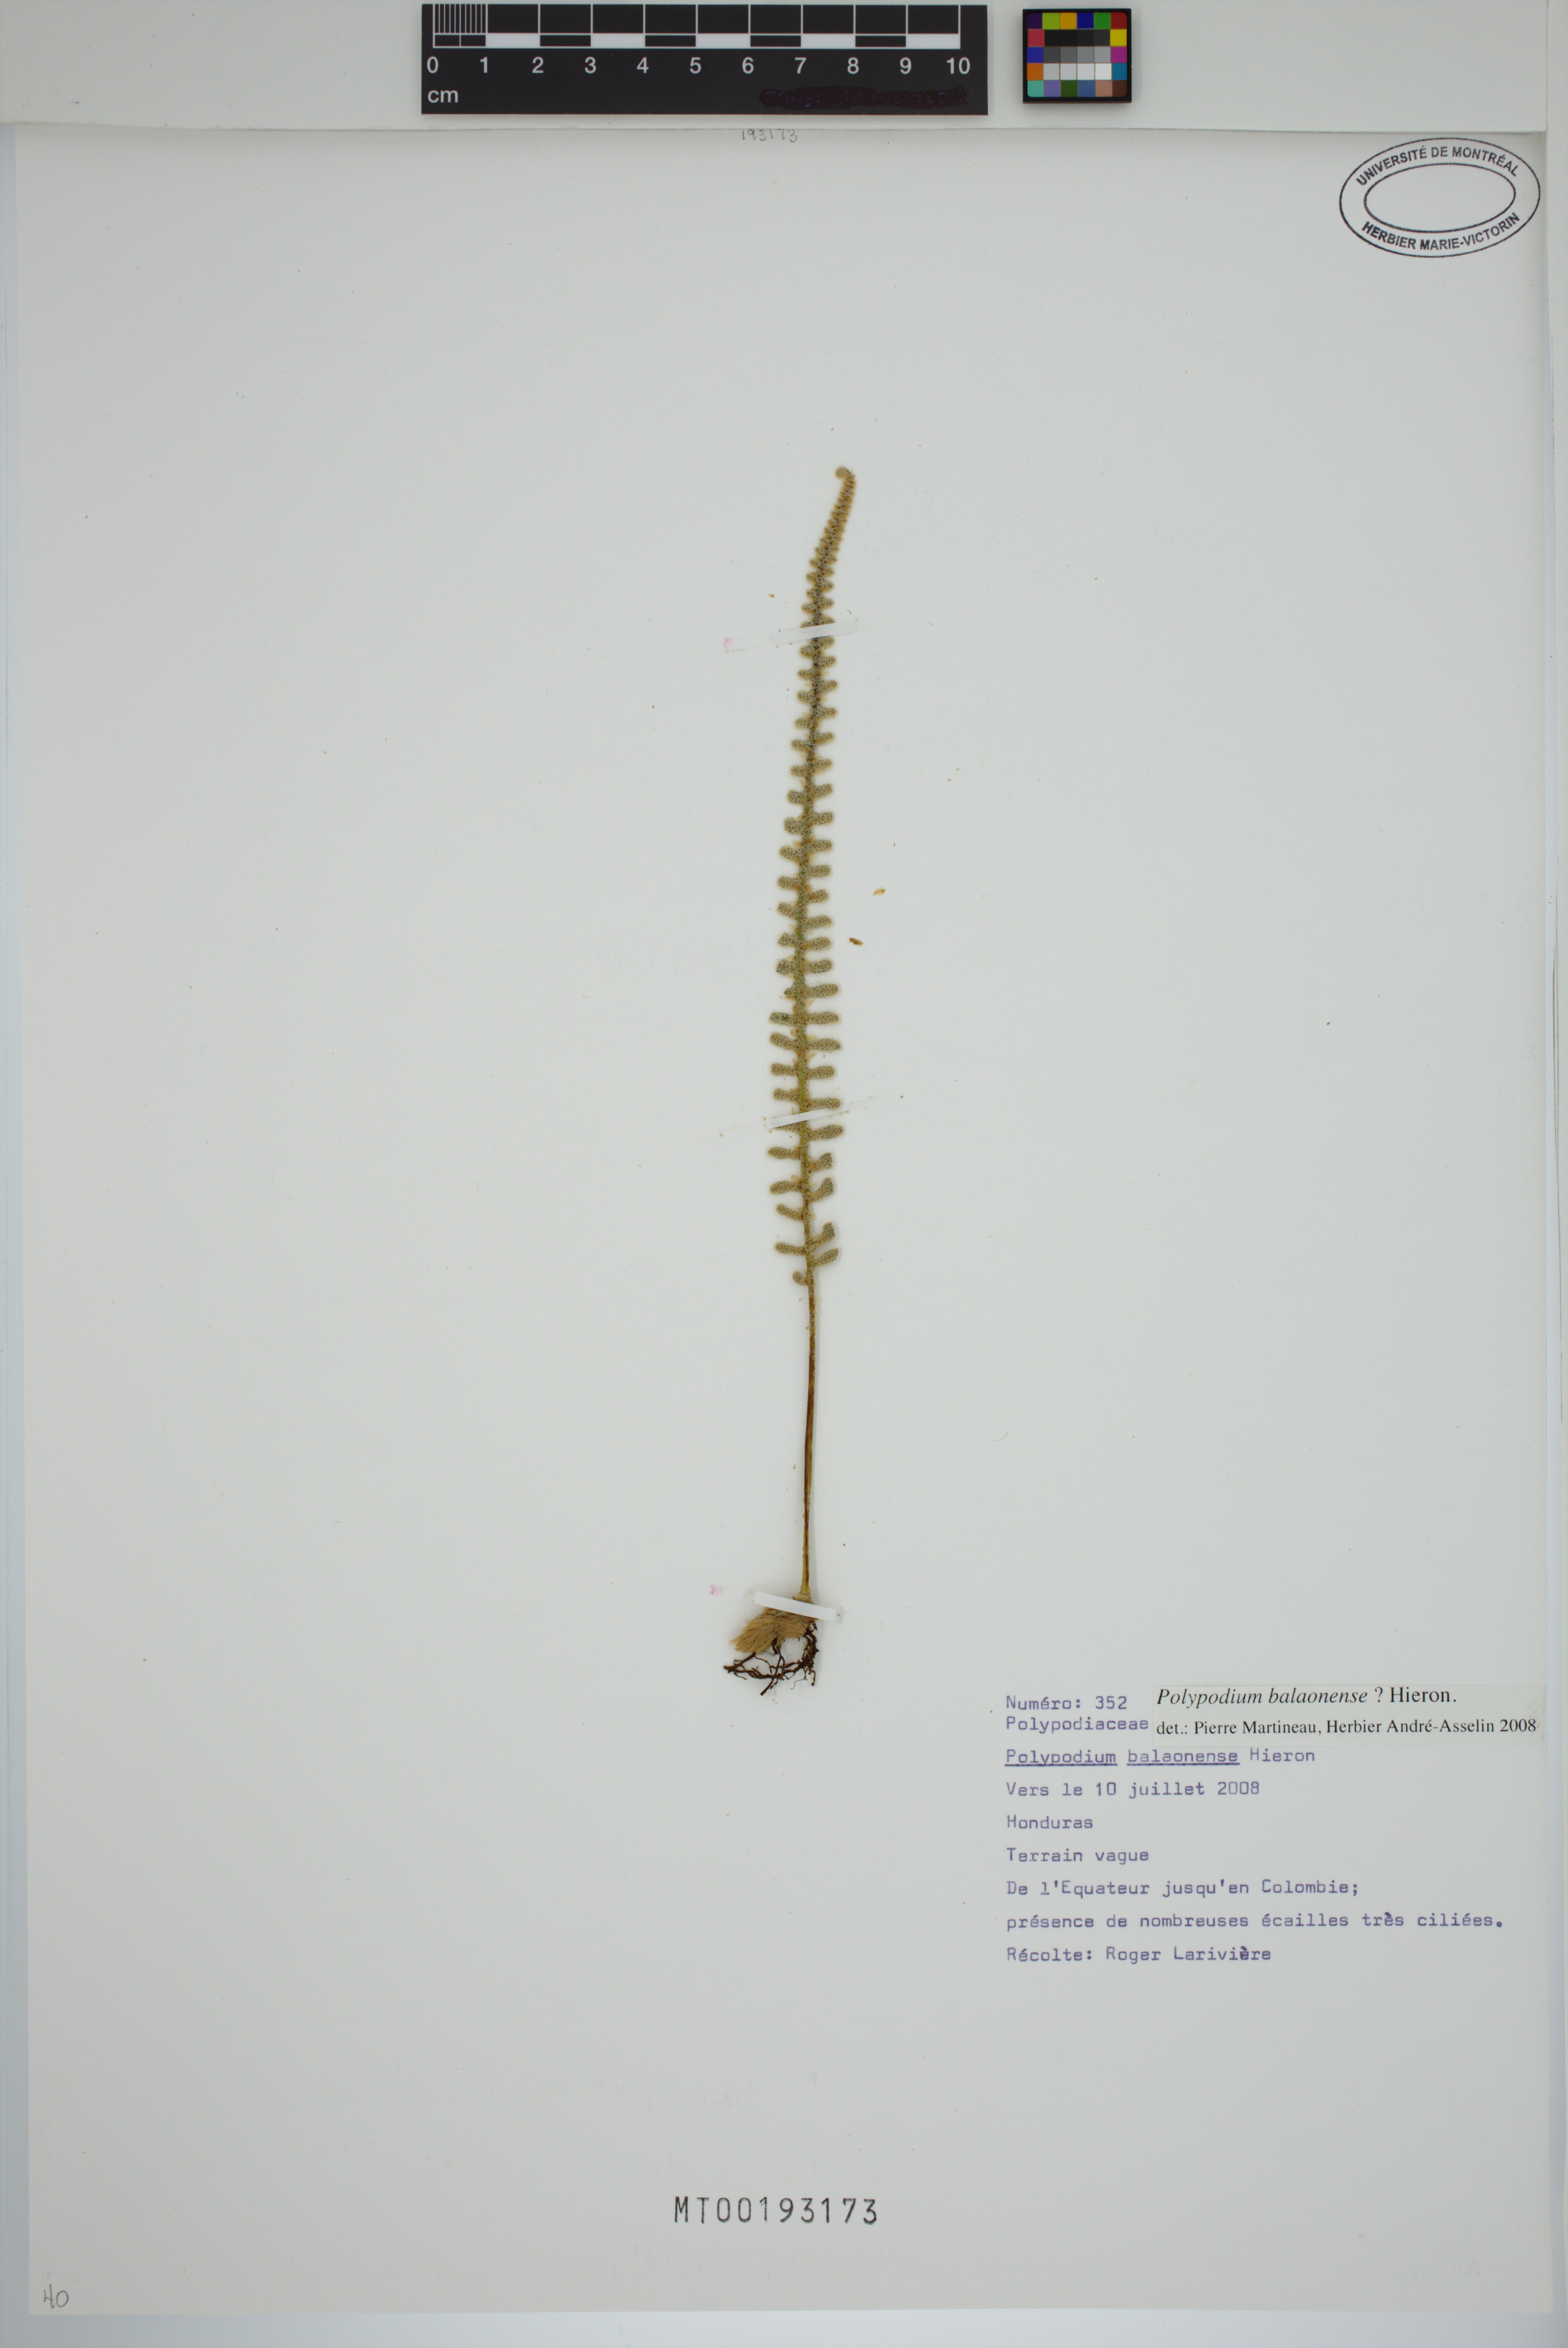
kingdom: Plantae
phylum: Tracheophyta
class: Polypodiopsida
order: Polypodiales
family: Polypodiaceae
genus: Pleopeltis
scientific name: Pleopeltis balaonensis
